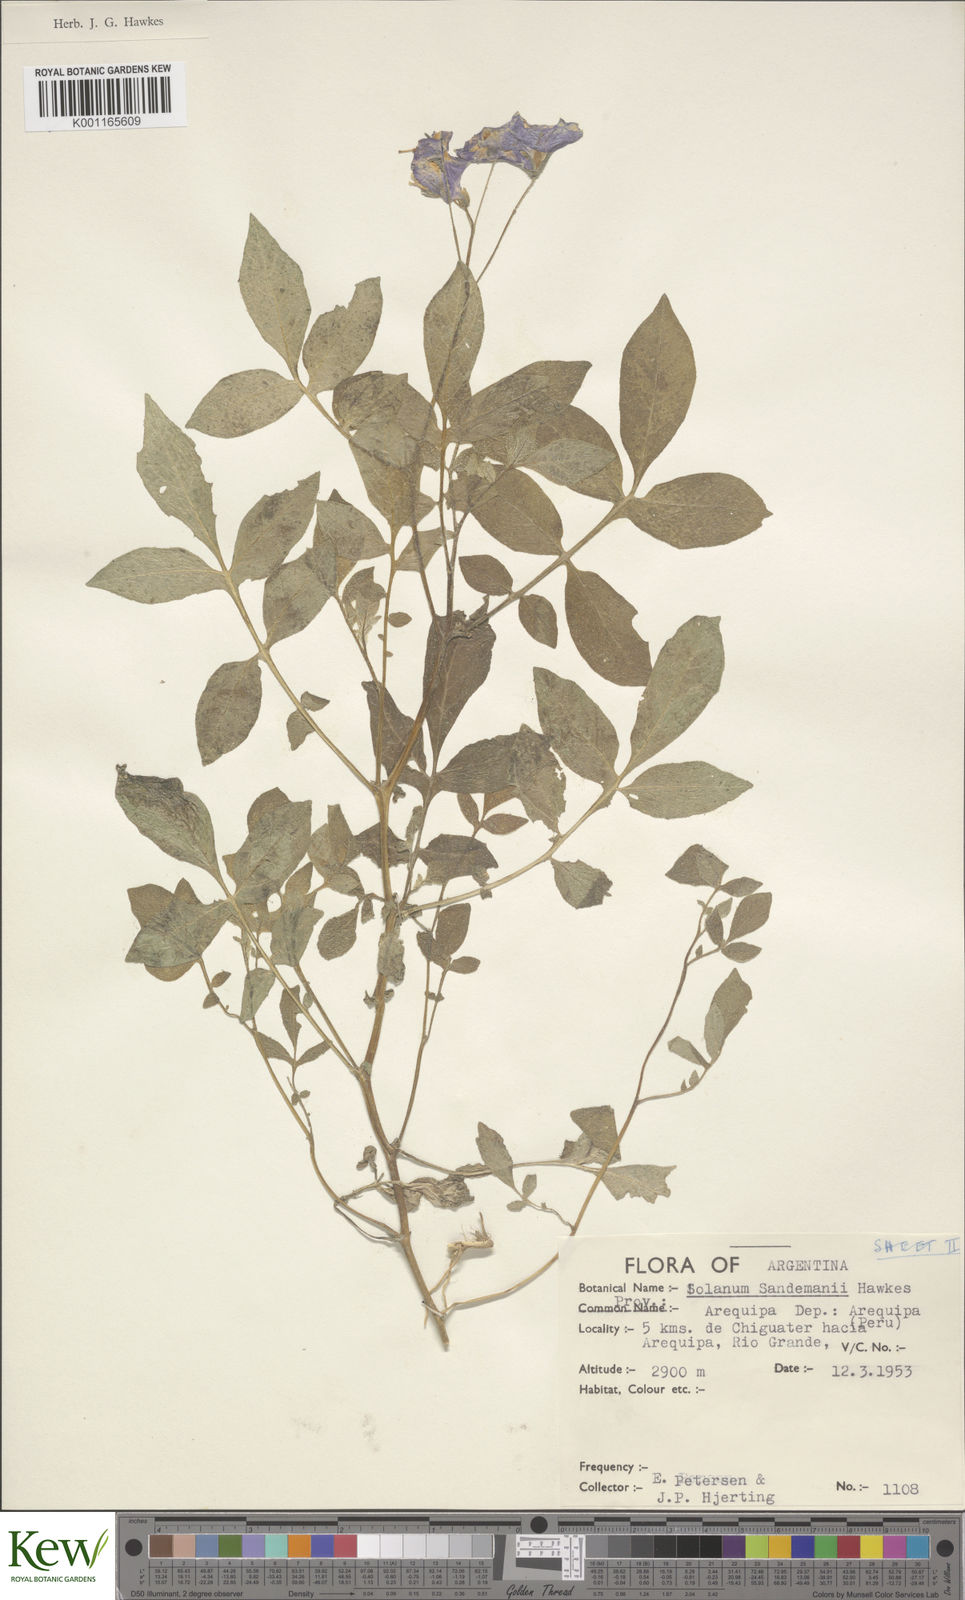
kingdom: Plantae
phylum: Tracheophyta
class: Magnoliopsida
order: Solanales
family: Solanaceae
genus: Solanum
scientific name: Solanum medians
